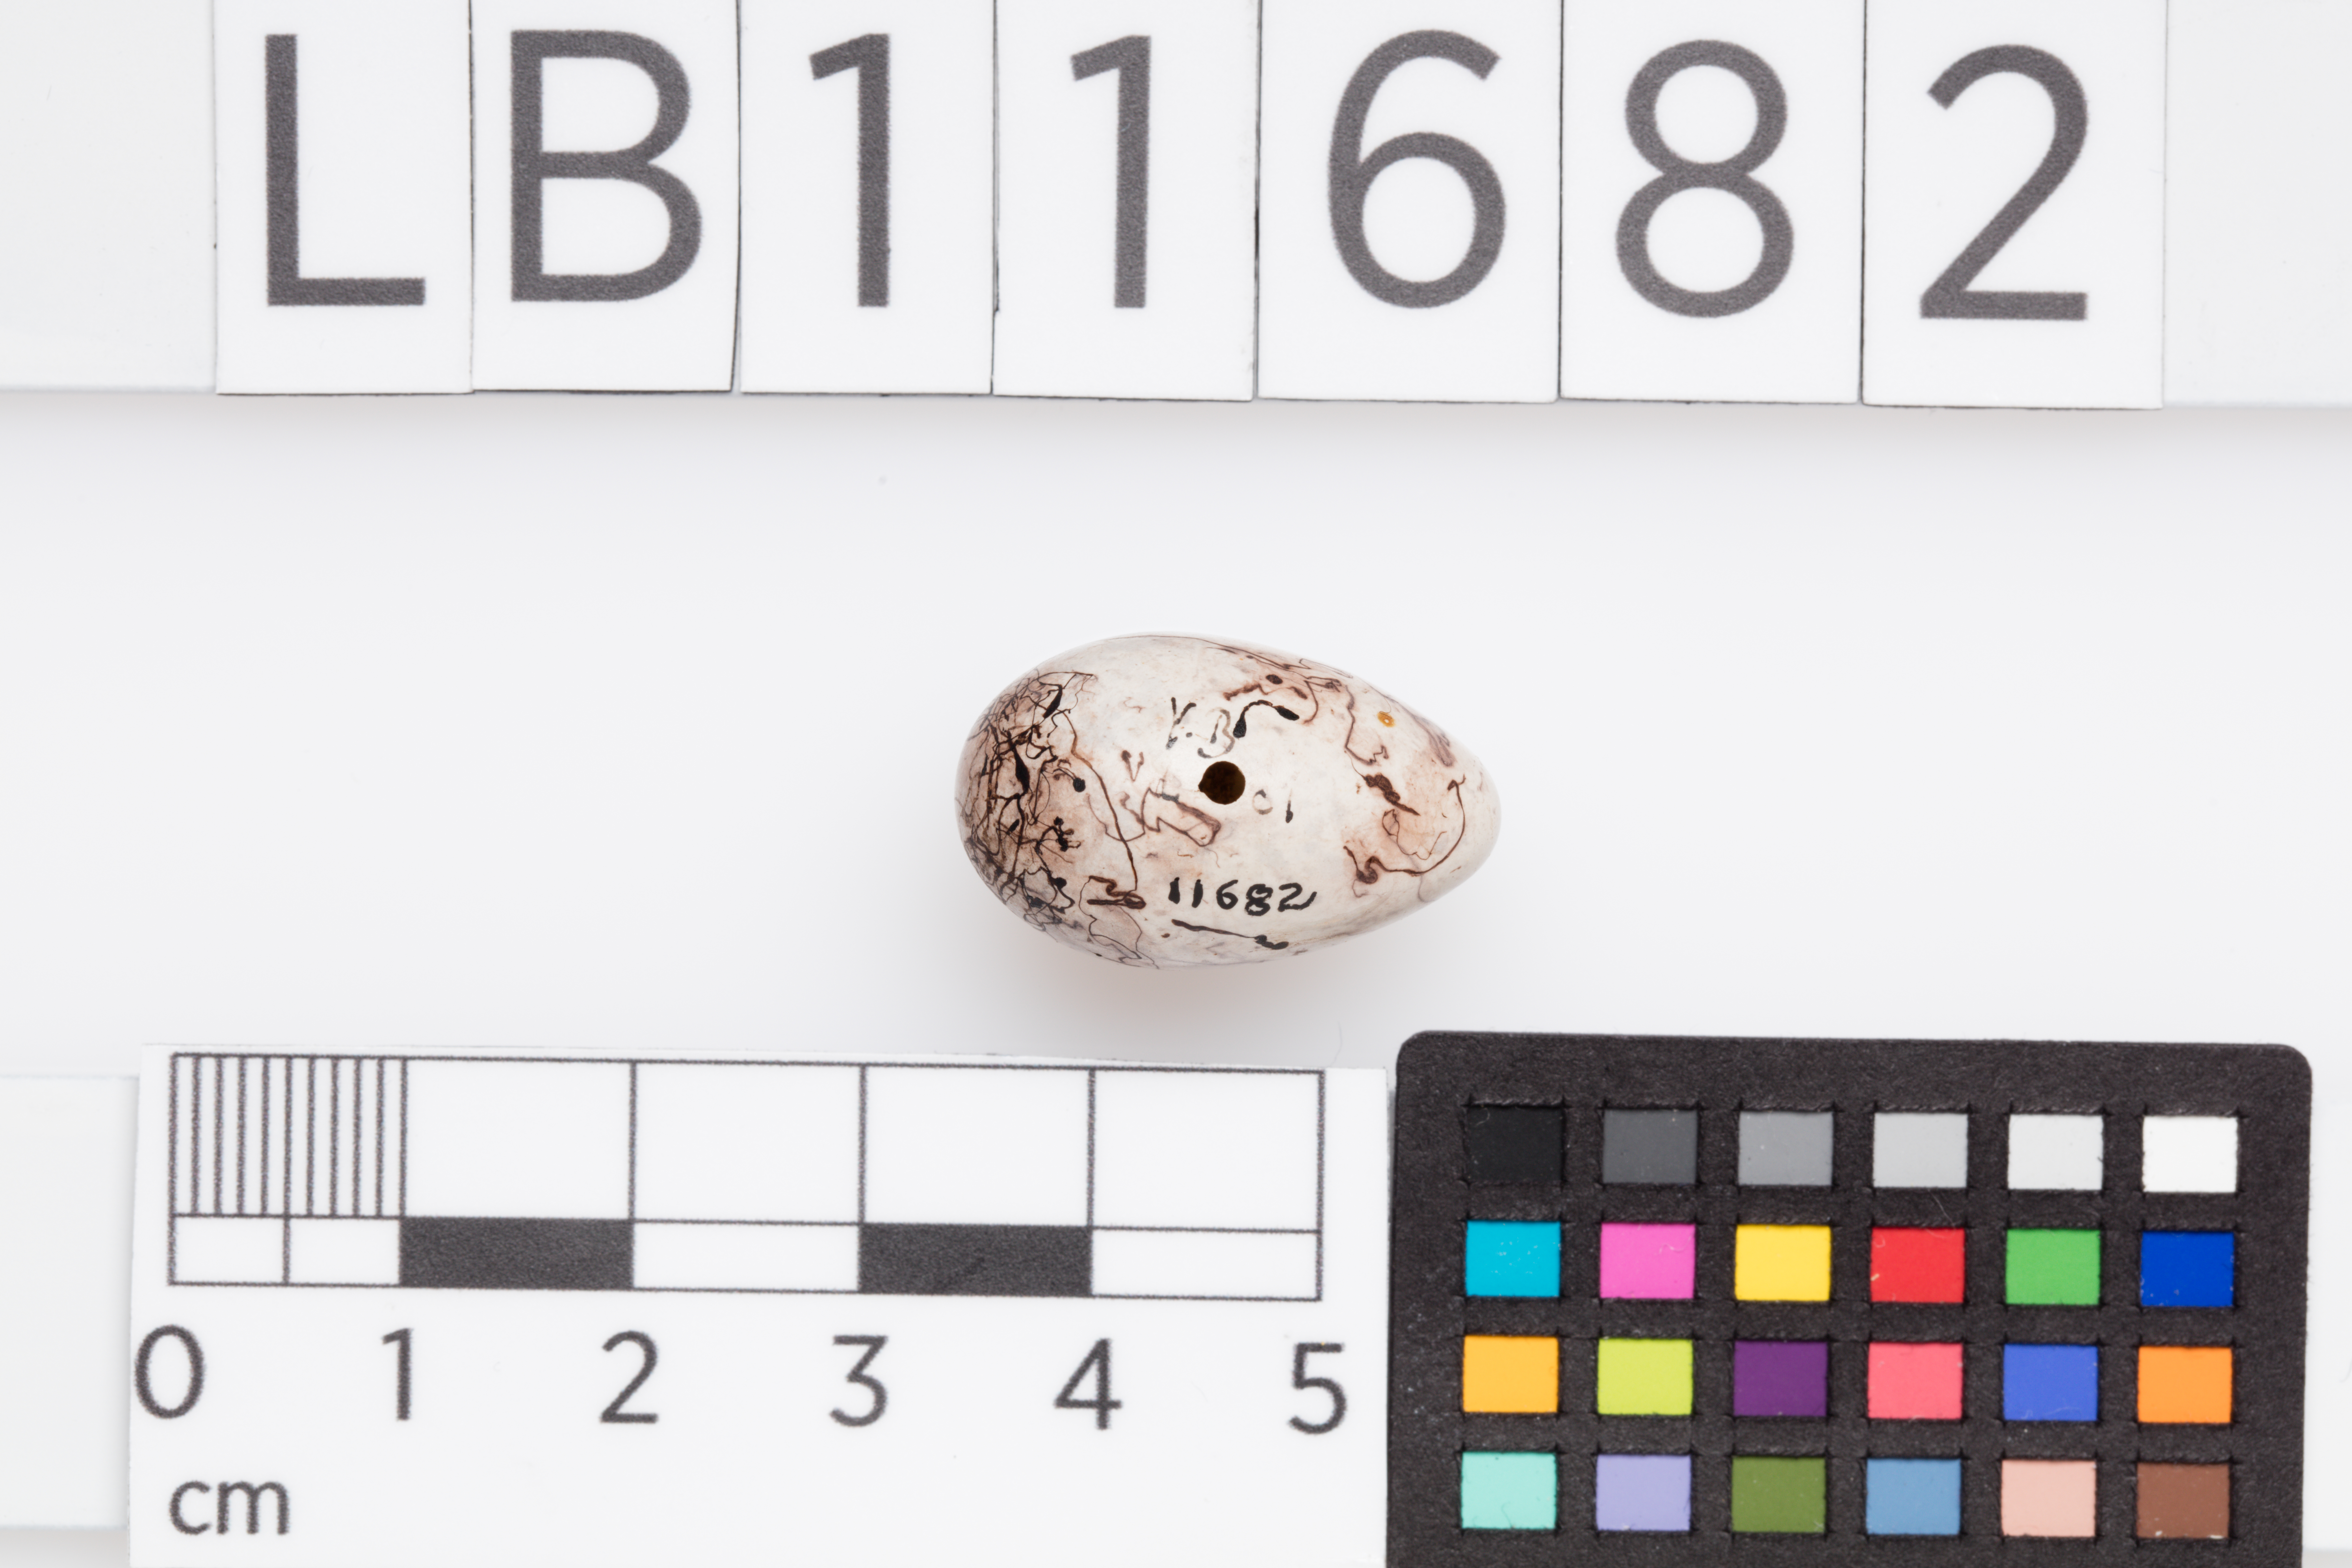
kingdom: Animalia
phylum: Chordata
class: Aves
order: Passeriformes
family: Emberizidae
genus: Emberiza
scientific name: Emberiza citrinella
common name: Yellowhammer
